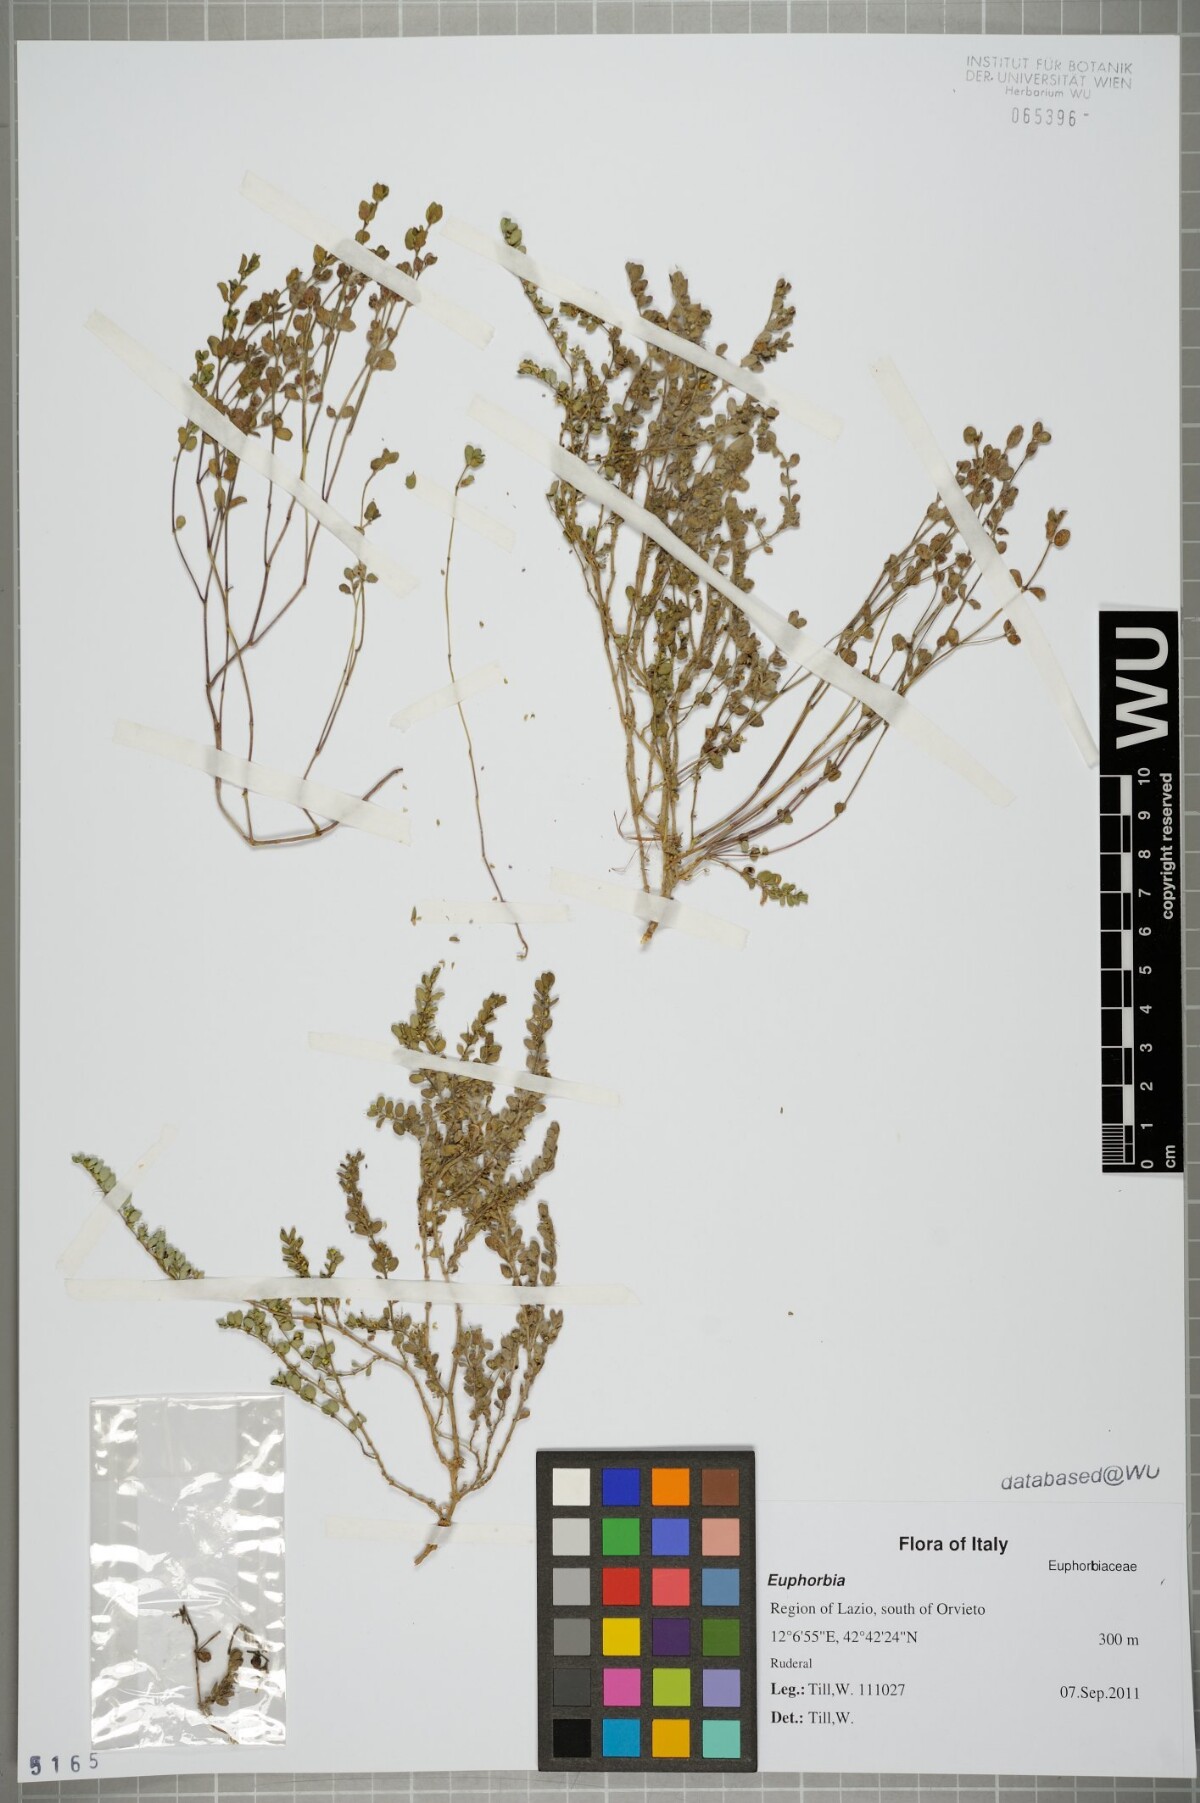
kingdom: Plantae
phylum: Tracheophyta
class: Magnoliopsida
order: Malpighiales
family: Euphorbiaceae
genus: Euphorbia
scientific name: Euphorbia
